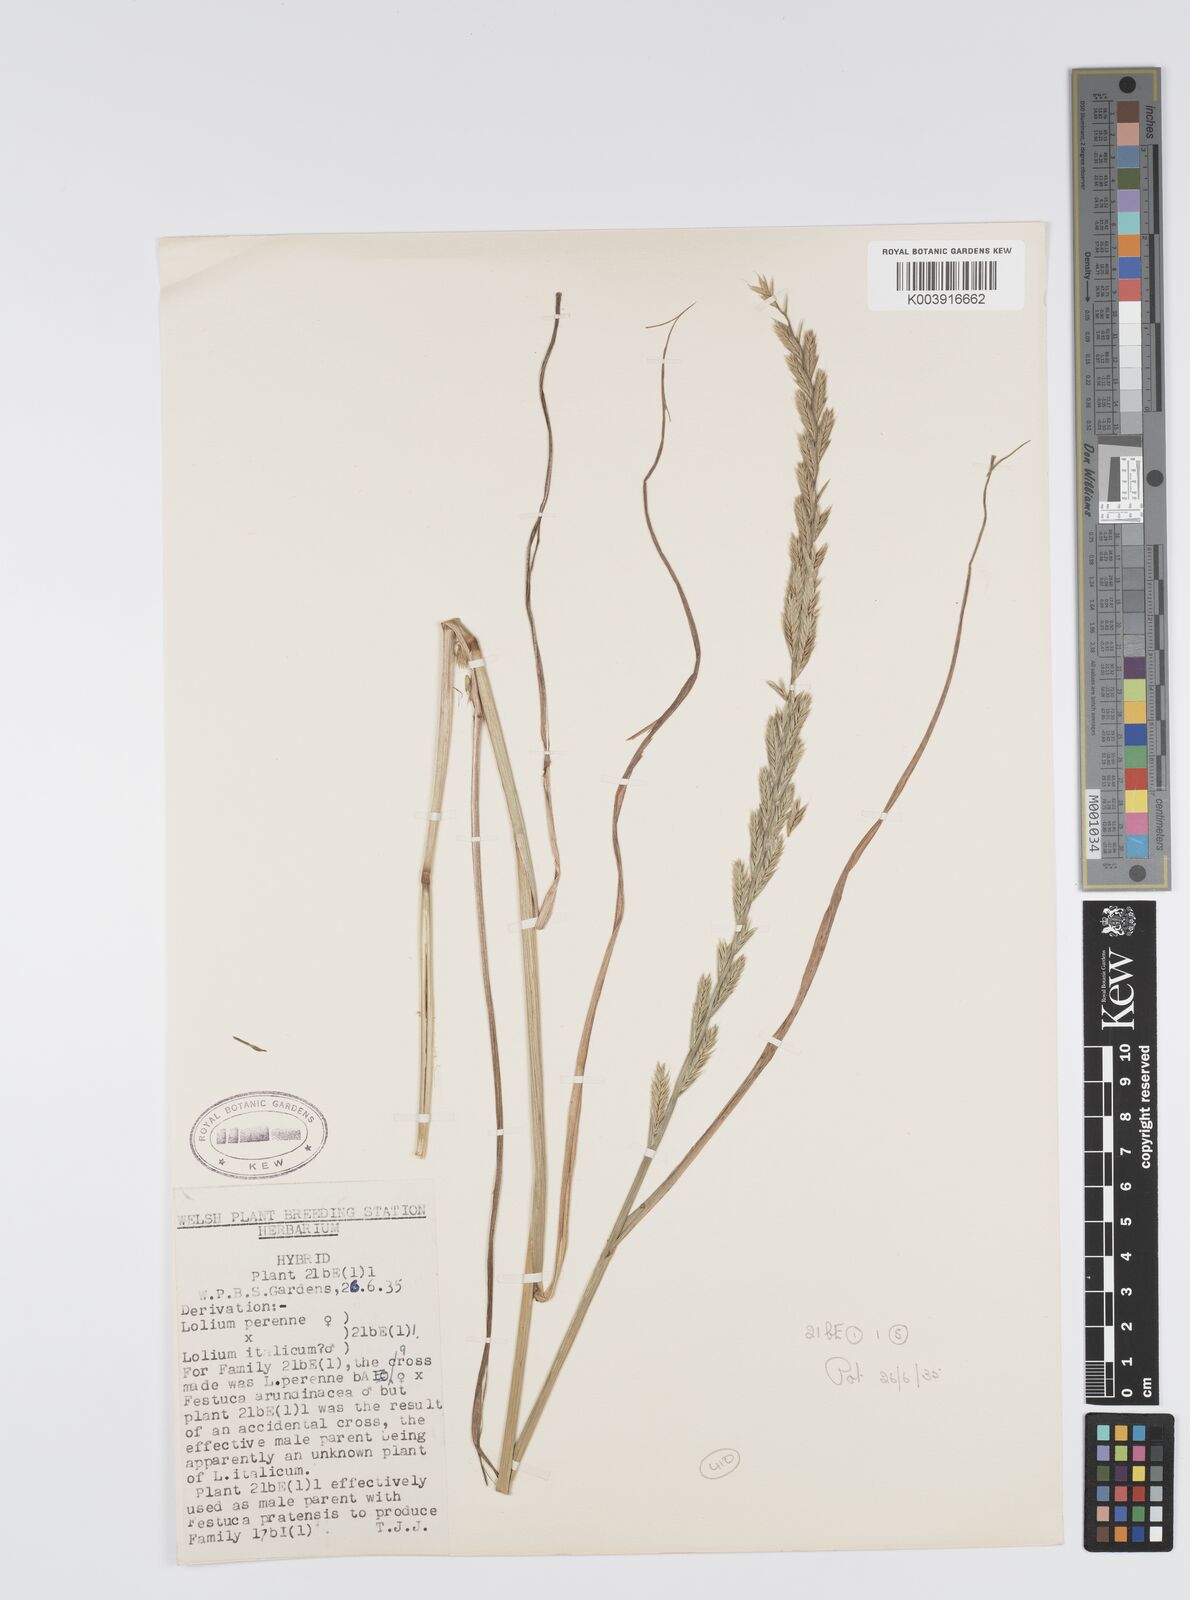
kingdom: Plantae
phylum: Tracheophyta
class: Liliopsida
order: Poales
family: Poaceae
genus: Lolium
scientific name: Lolium perenne
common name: Perennial ryegrass
